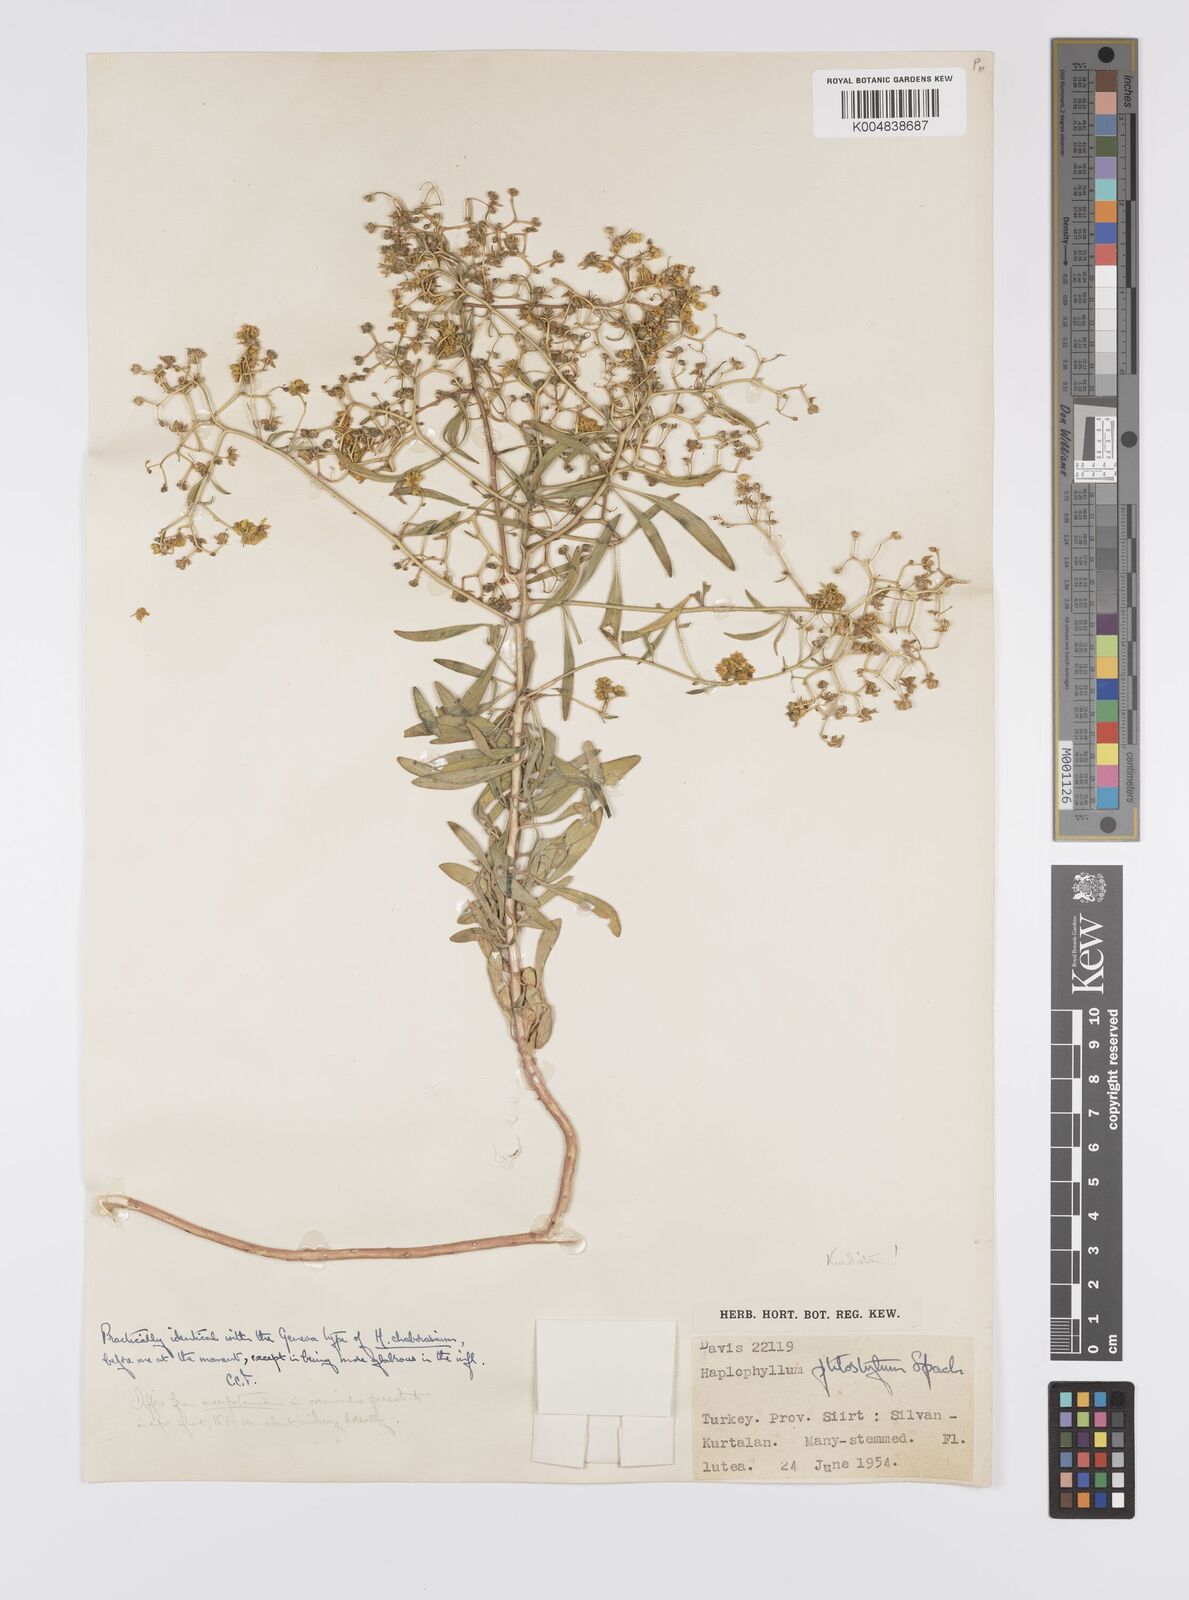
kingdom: Plantae
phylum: Tracheophyta
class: Magnoliopsida
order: Sapindales
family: Rutaceae
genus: Haplophyllum
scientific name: Haplophyllum ptilostylum
